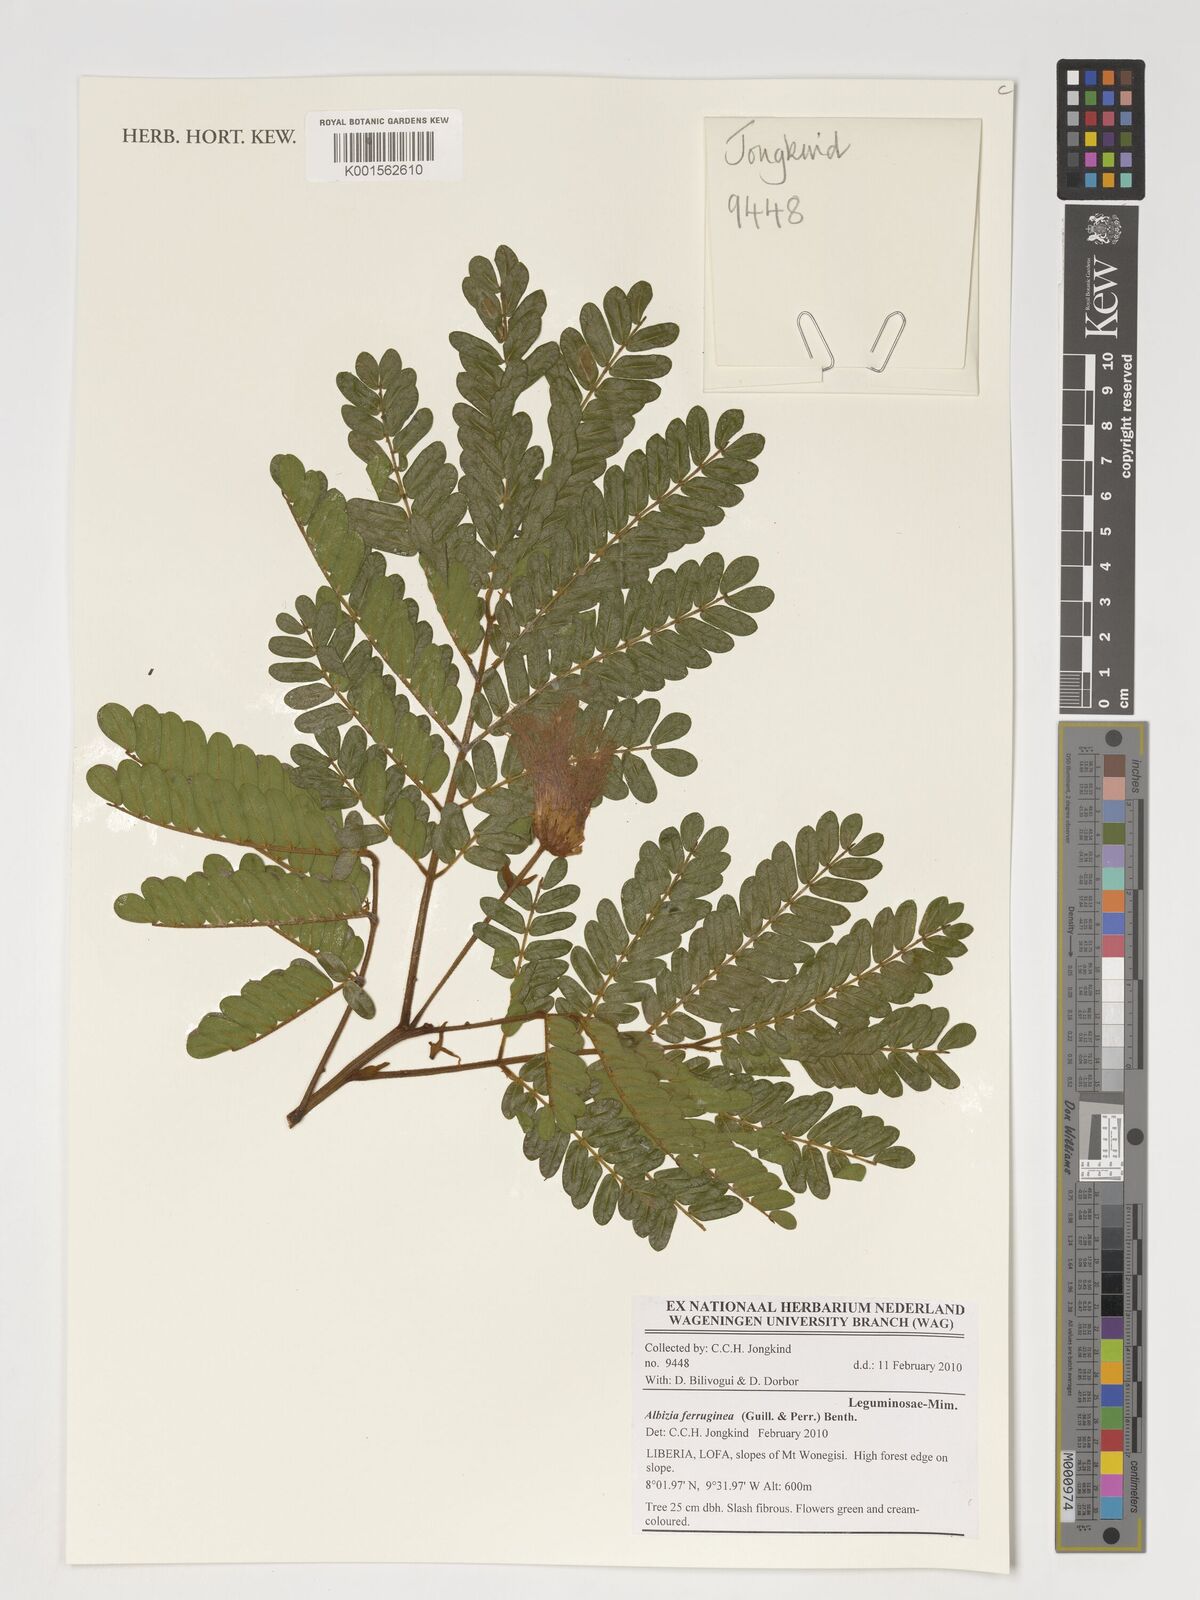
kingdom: Plantae
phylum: Tracheophyta
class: Magnoliopsida
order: Fabales
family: Fabaceae
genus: Albizia
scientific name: Albizia ferruginea
